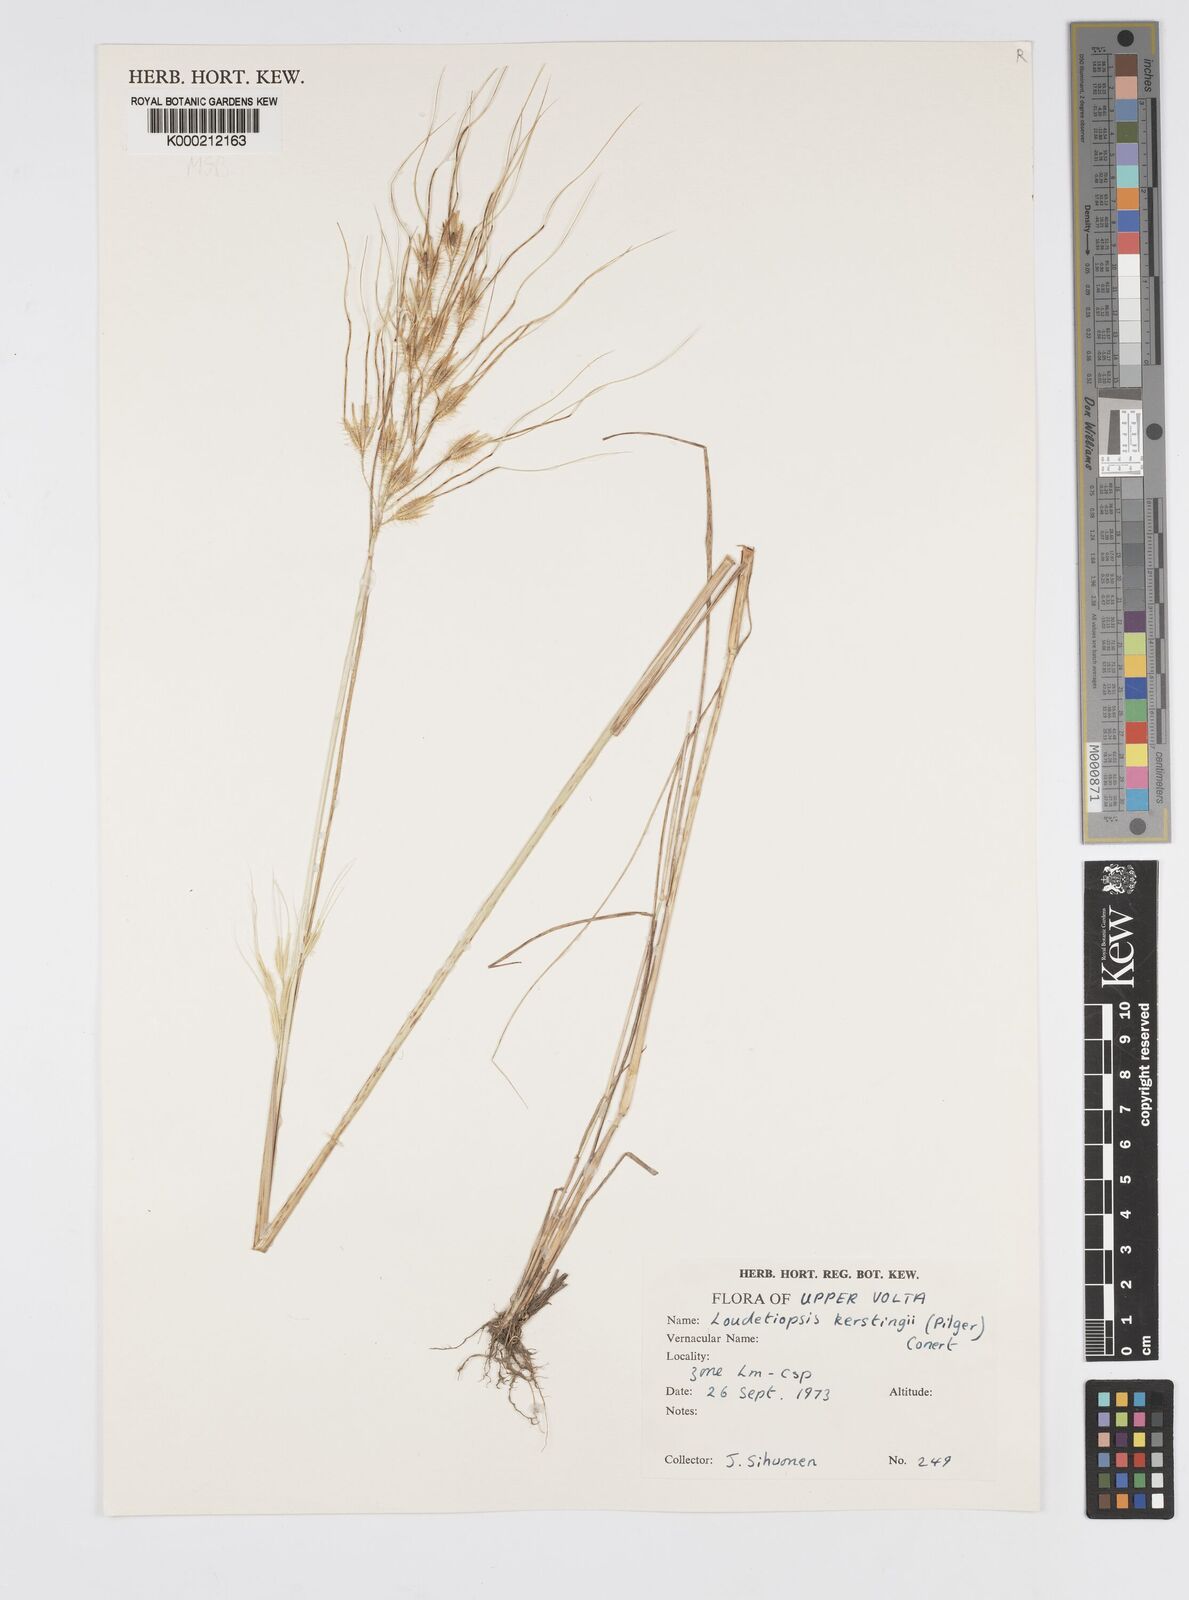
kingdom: Plantae
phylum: Tracheophyta
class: Liliopsida
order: Poales
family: Poaceae
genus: Loudetiopsis
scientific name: Loudetiopsis kerstingii
